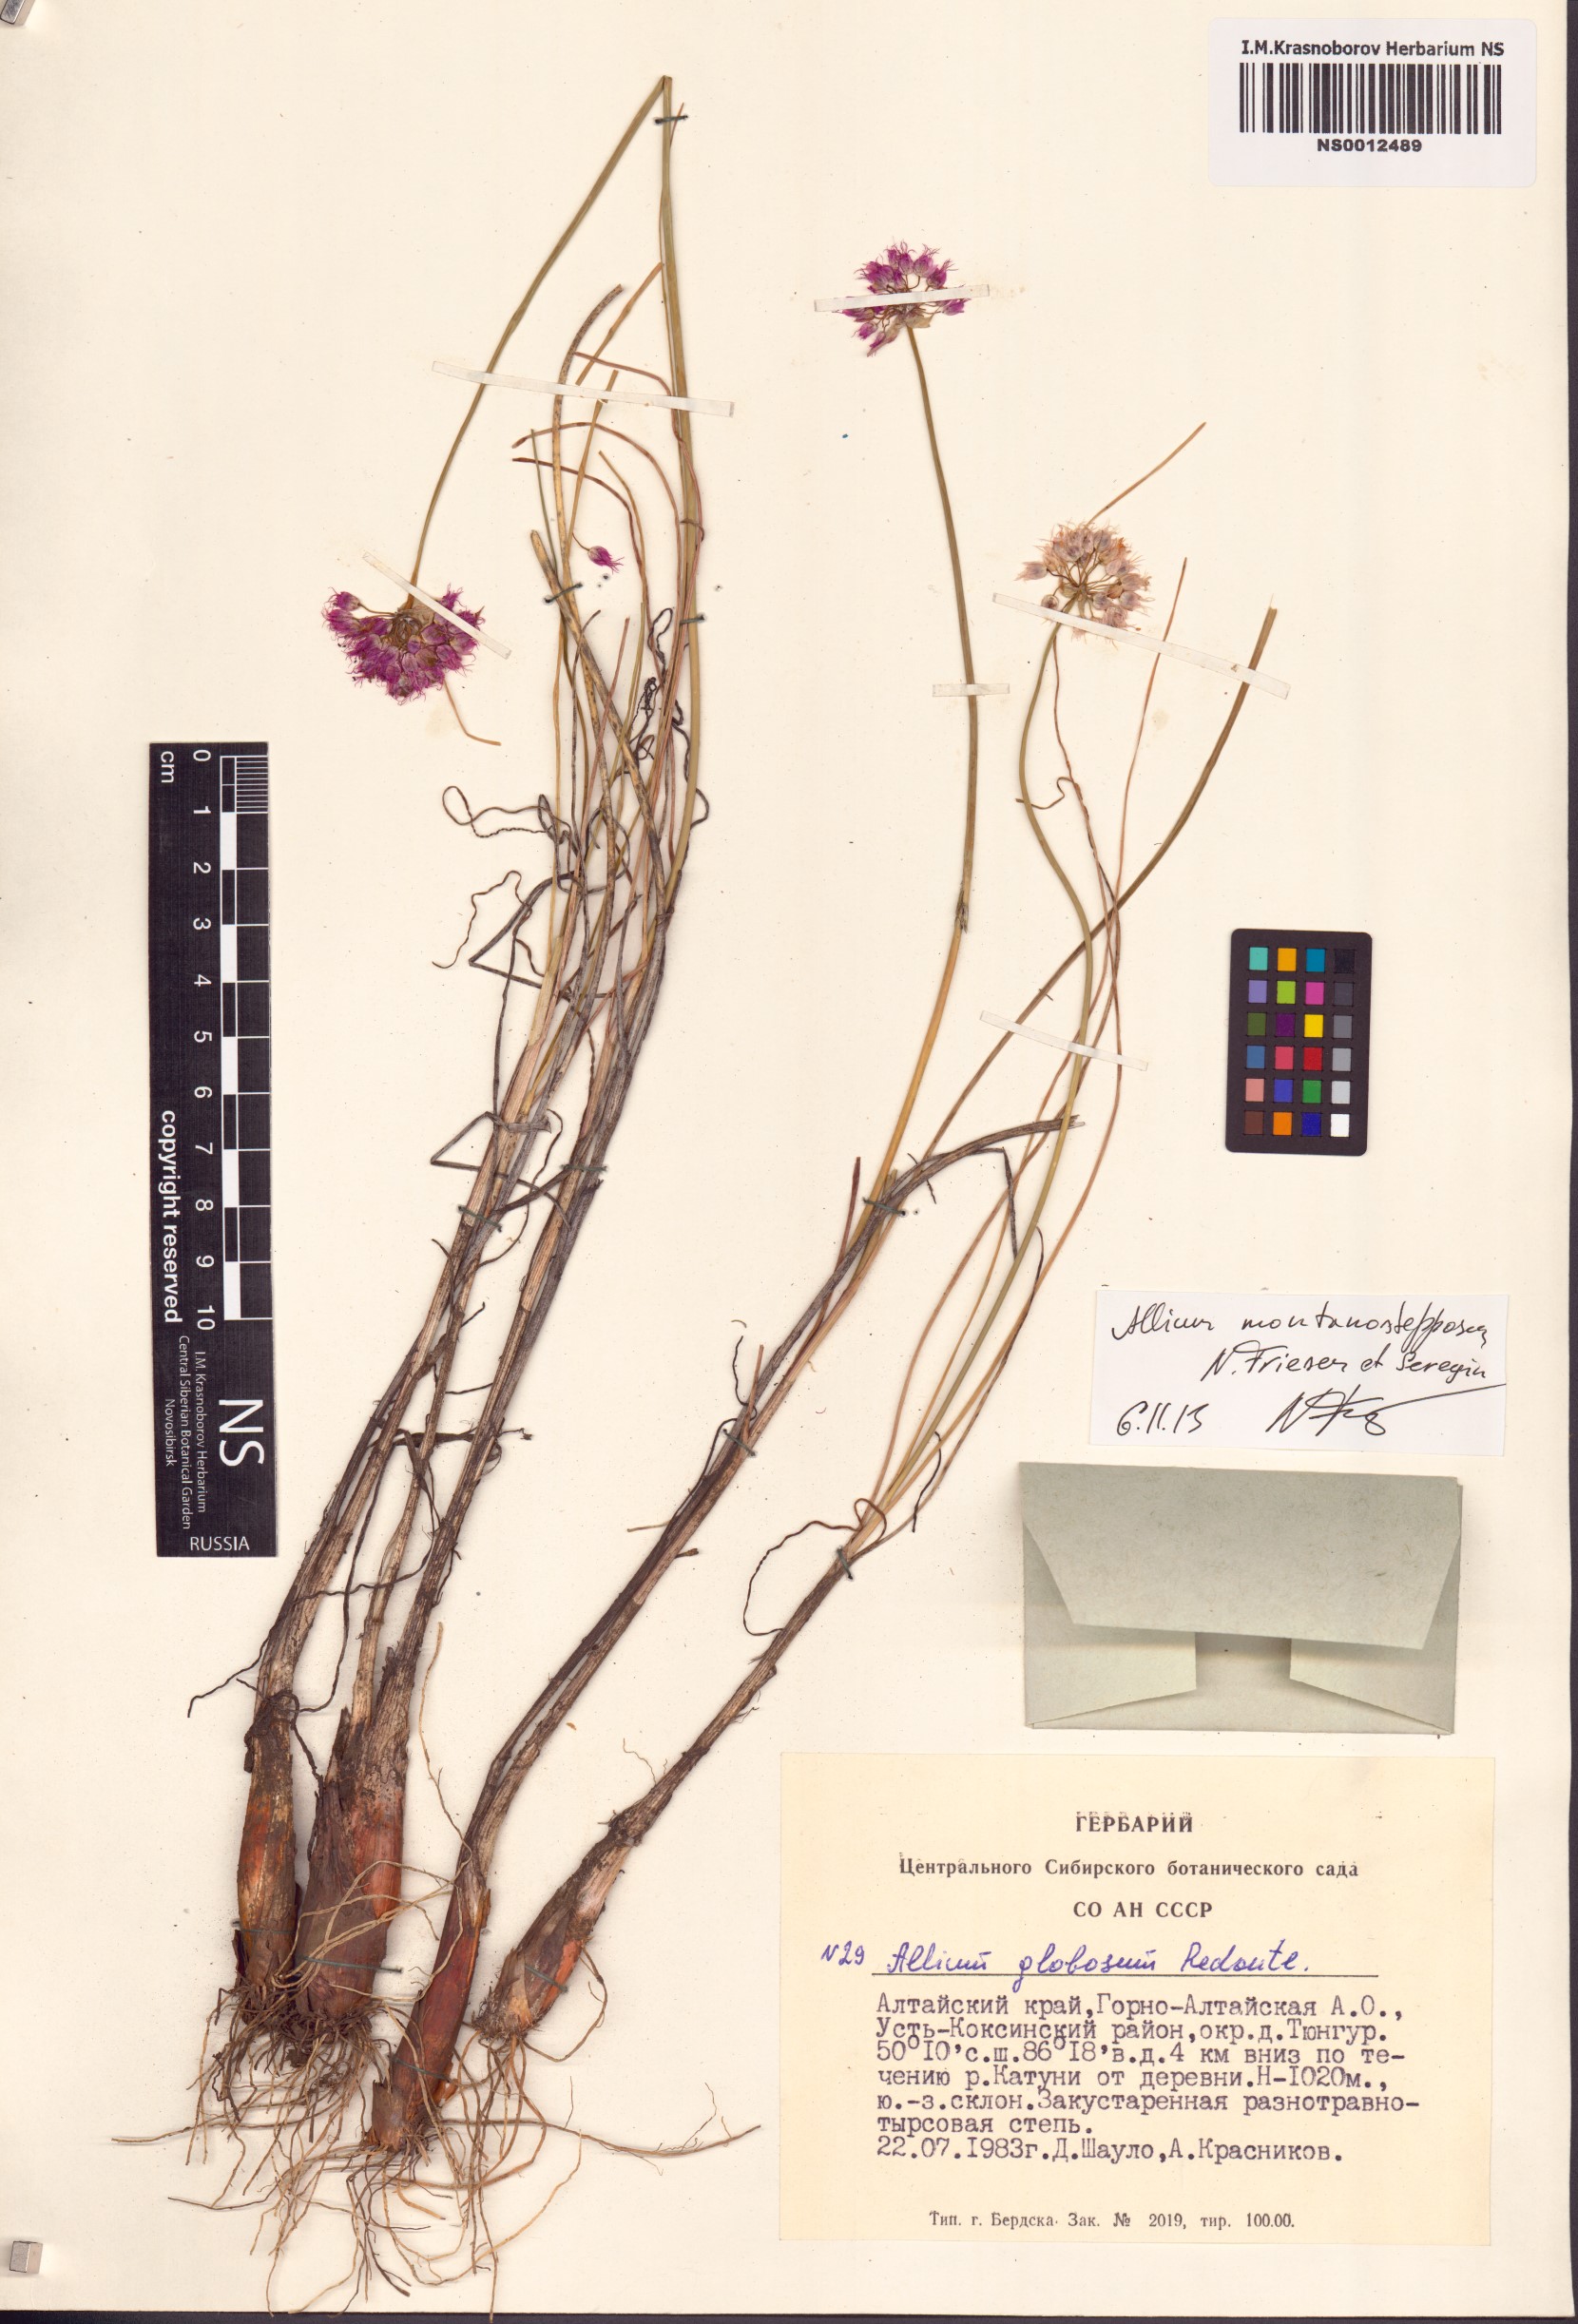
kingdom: Plantae
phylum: Tracheophyta
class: Liliopsida
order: Asparagales
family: Amaryllidaceae
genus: Allium
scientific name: Allium montanostepposum
